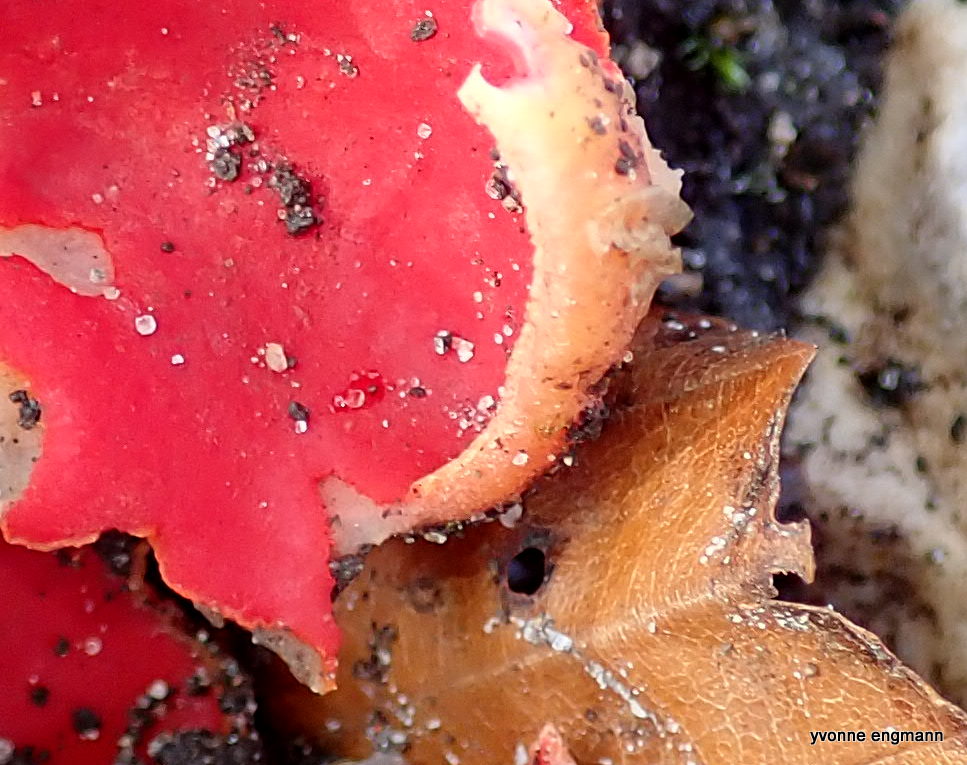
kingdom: Fungi
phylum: Ascomycota
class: Pezizomycetes
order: Pezizales
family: Sarcoscyphaceae
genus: Sarcoscypha
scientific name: Sarcoscypha
